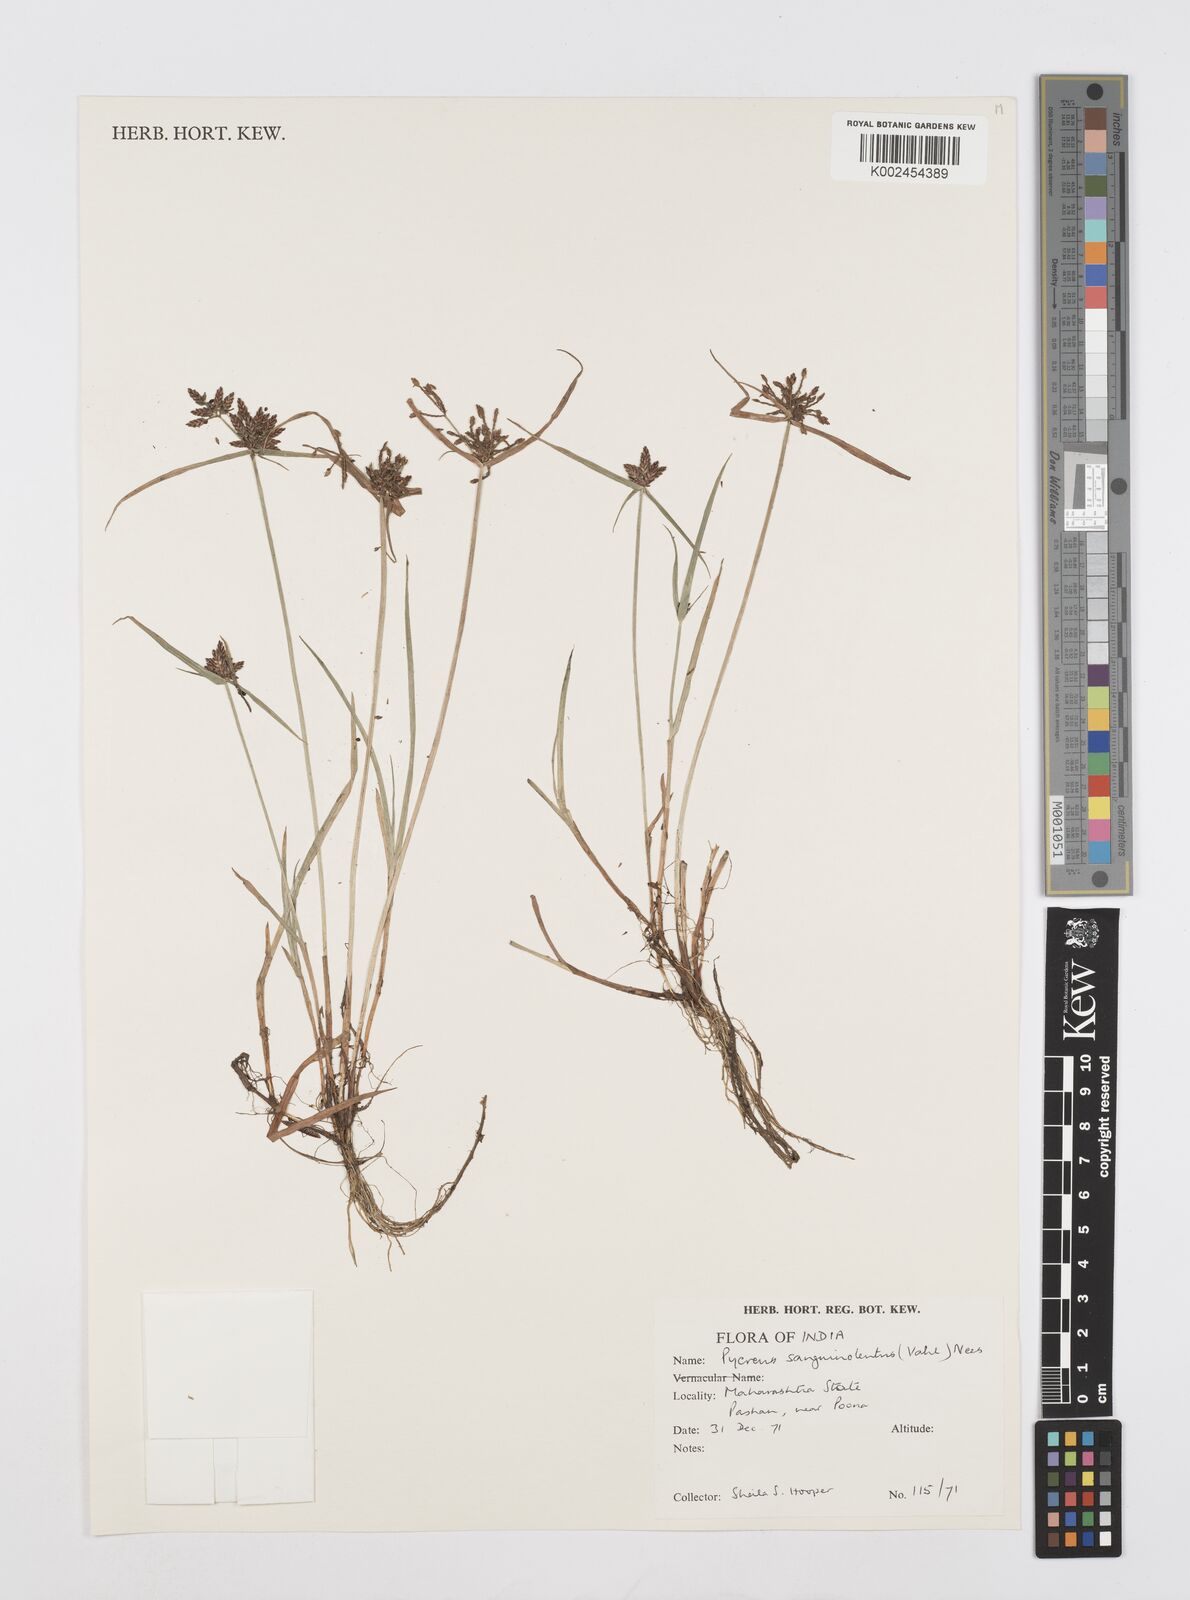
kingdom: Plantae
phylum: Tracheophyta
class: Liliopsida
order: Poales
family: Cyperaceae
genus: Cyperus
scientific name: Cyperus sanguinolentus
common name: Purpleglume flatsedge
